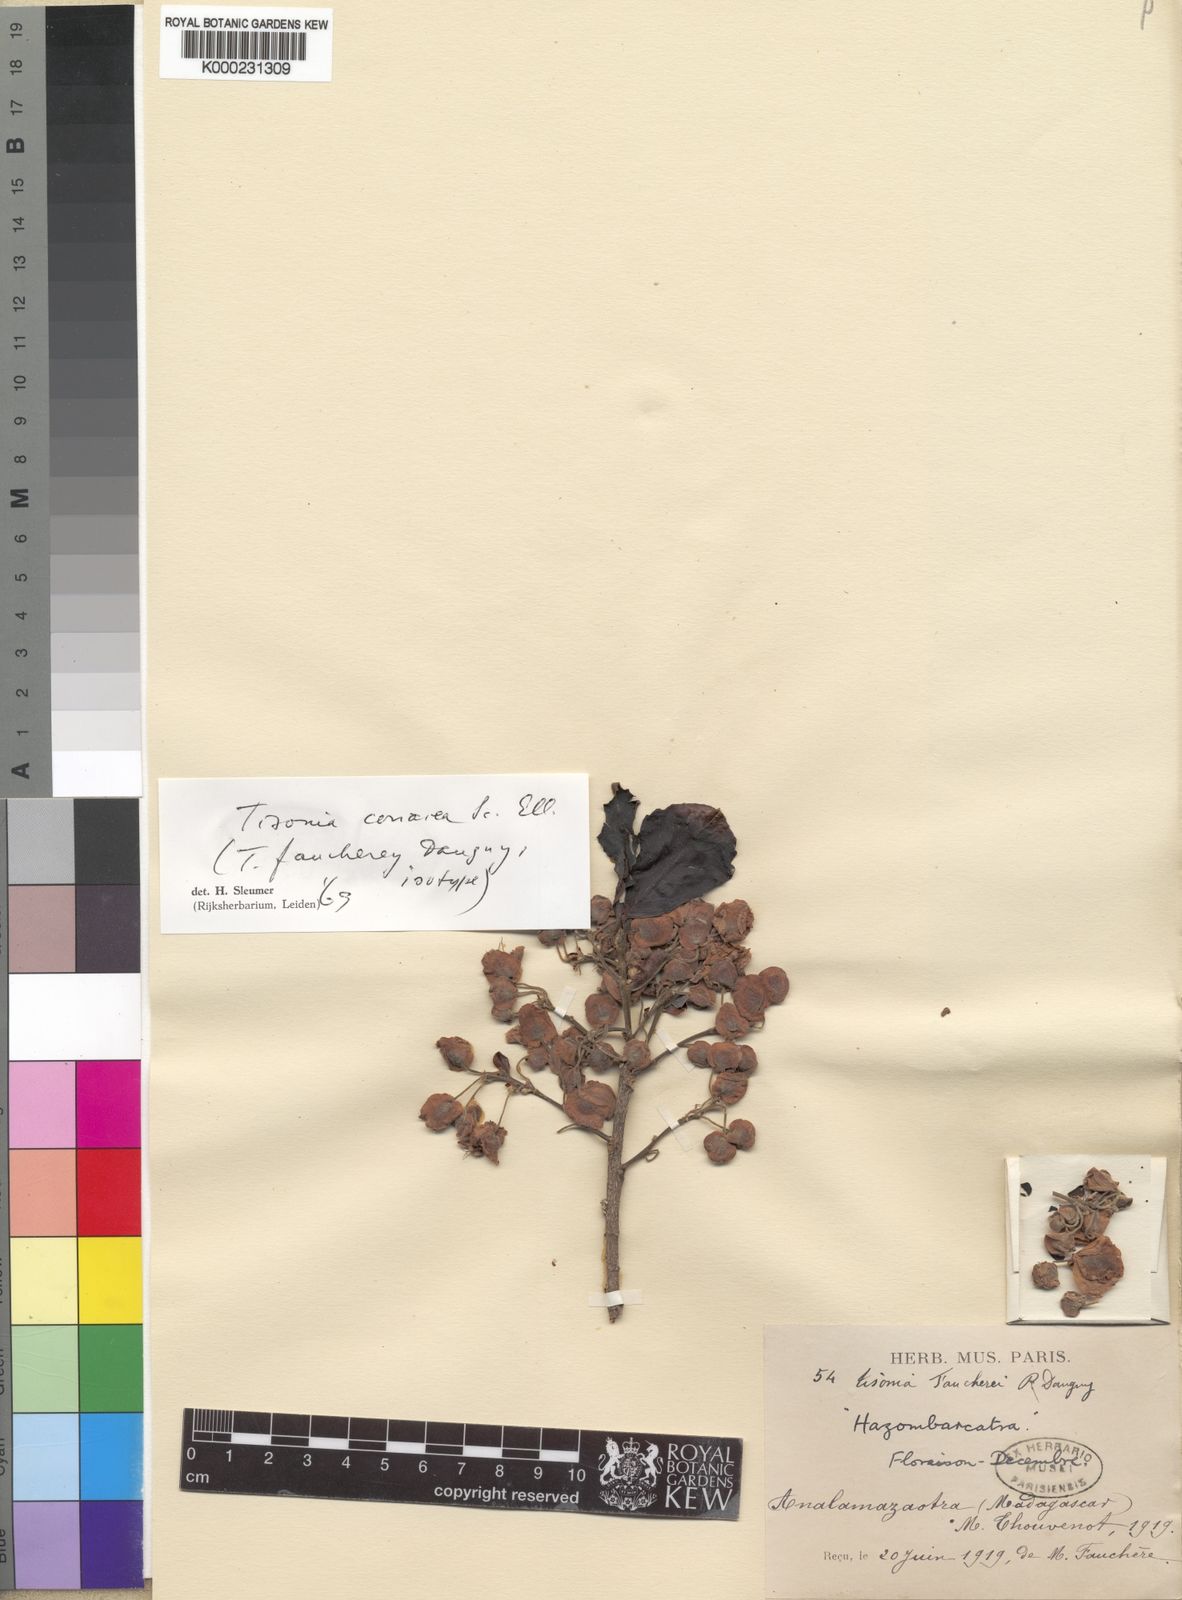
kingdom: Plantae
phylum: Tracheophyta
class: Magnoliopsida
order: Malpighiales
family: Salicaceae
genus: Tisonia
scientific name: Tisonia coriacea
